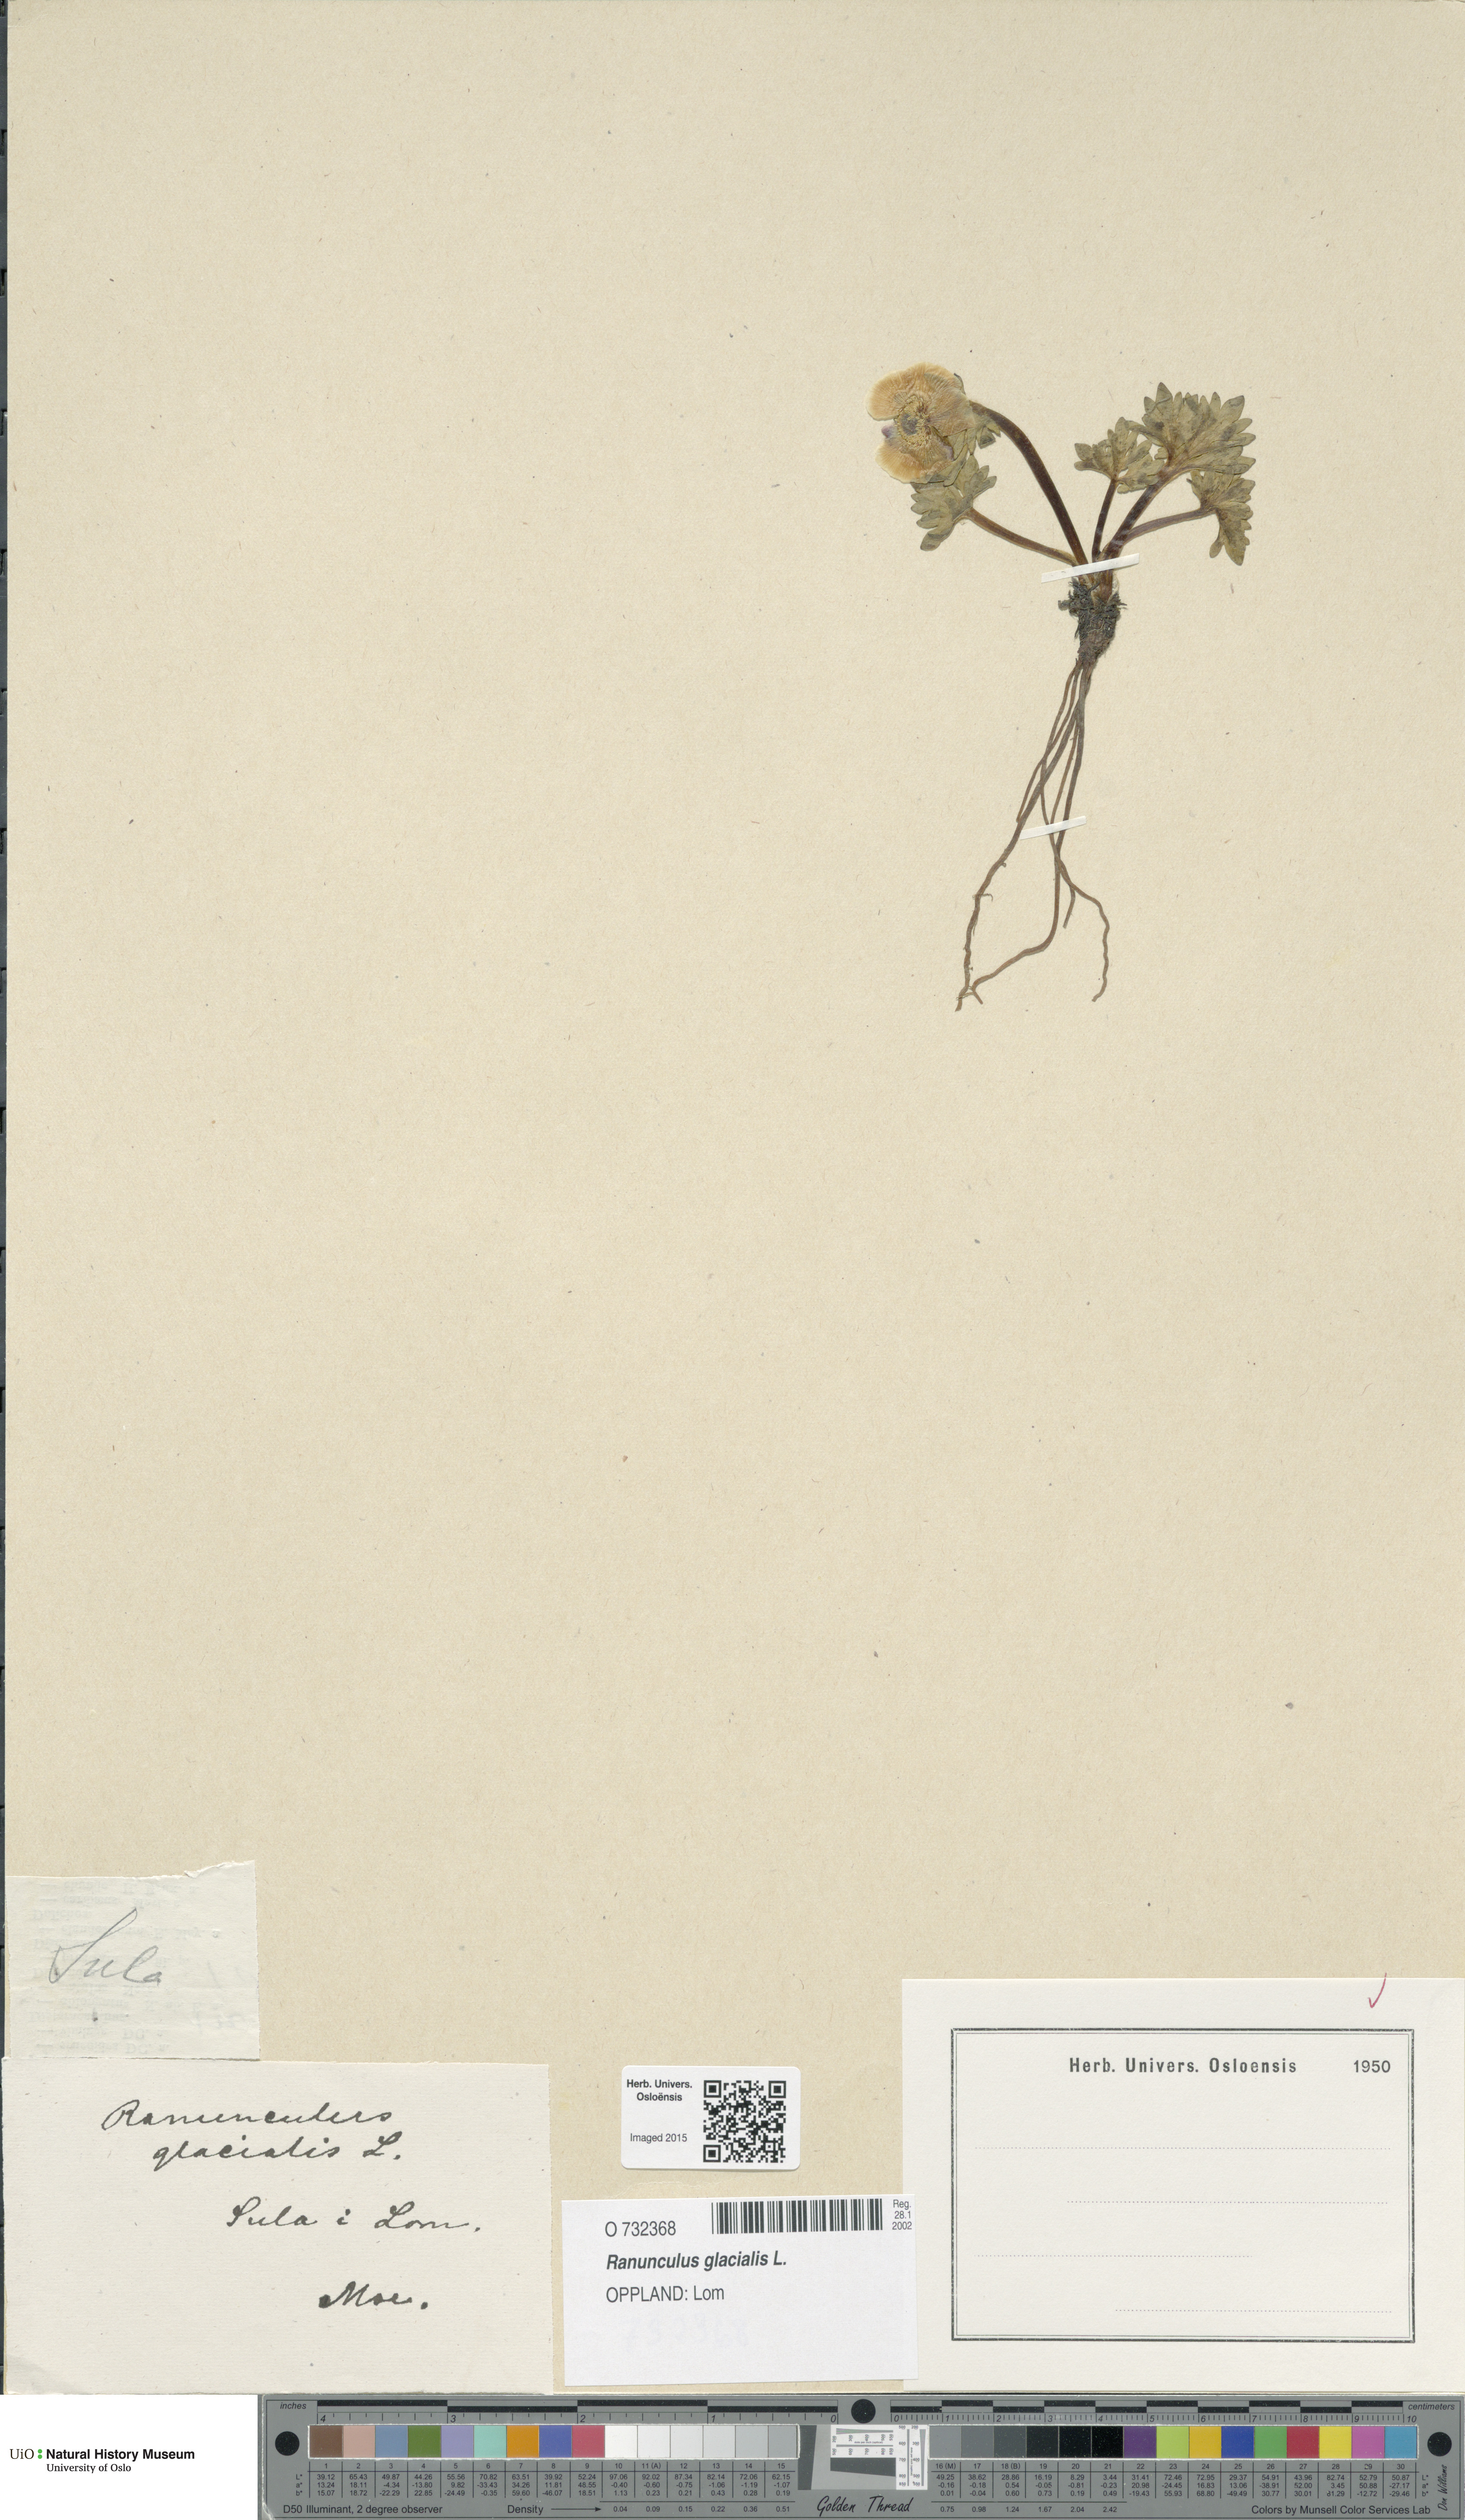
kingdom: Plantae
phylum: Tracheophyta
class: Magnoliopsida
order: Ranunculales
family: Ranunculaceae
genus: Ranunculus
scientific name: Ranunculus glacialis
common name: Glacier buttercup
